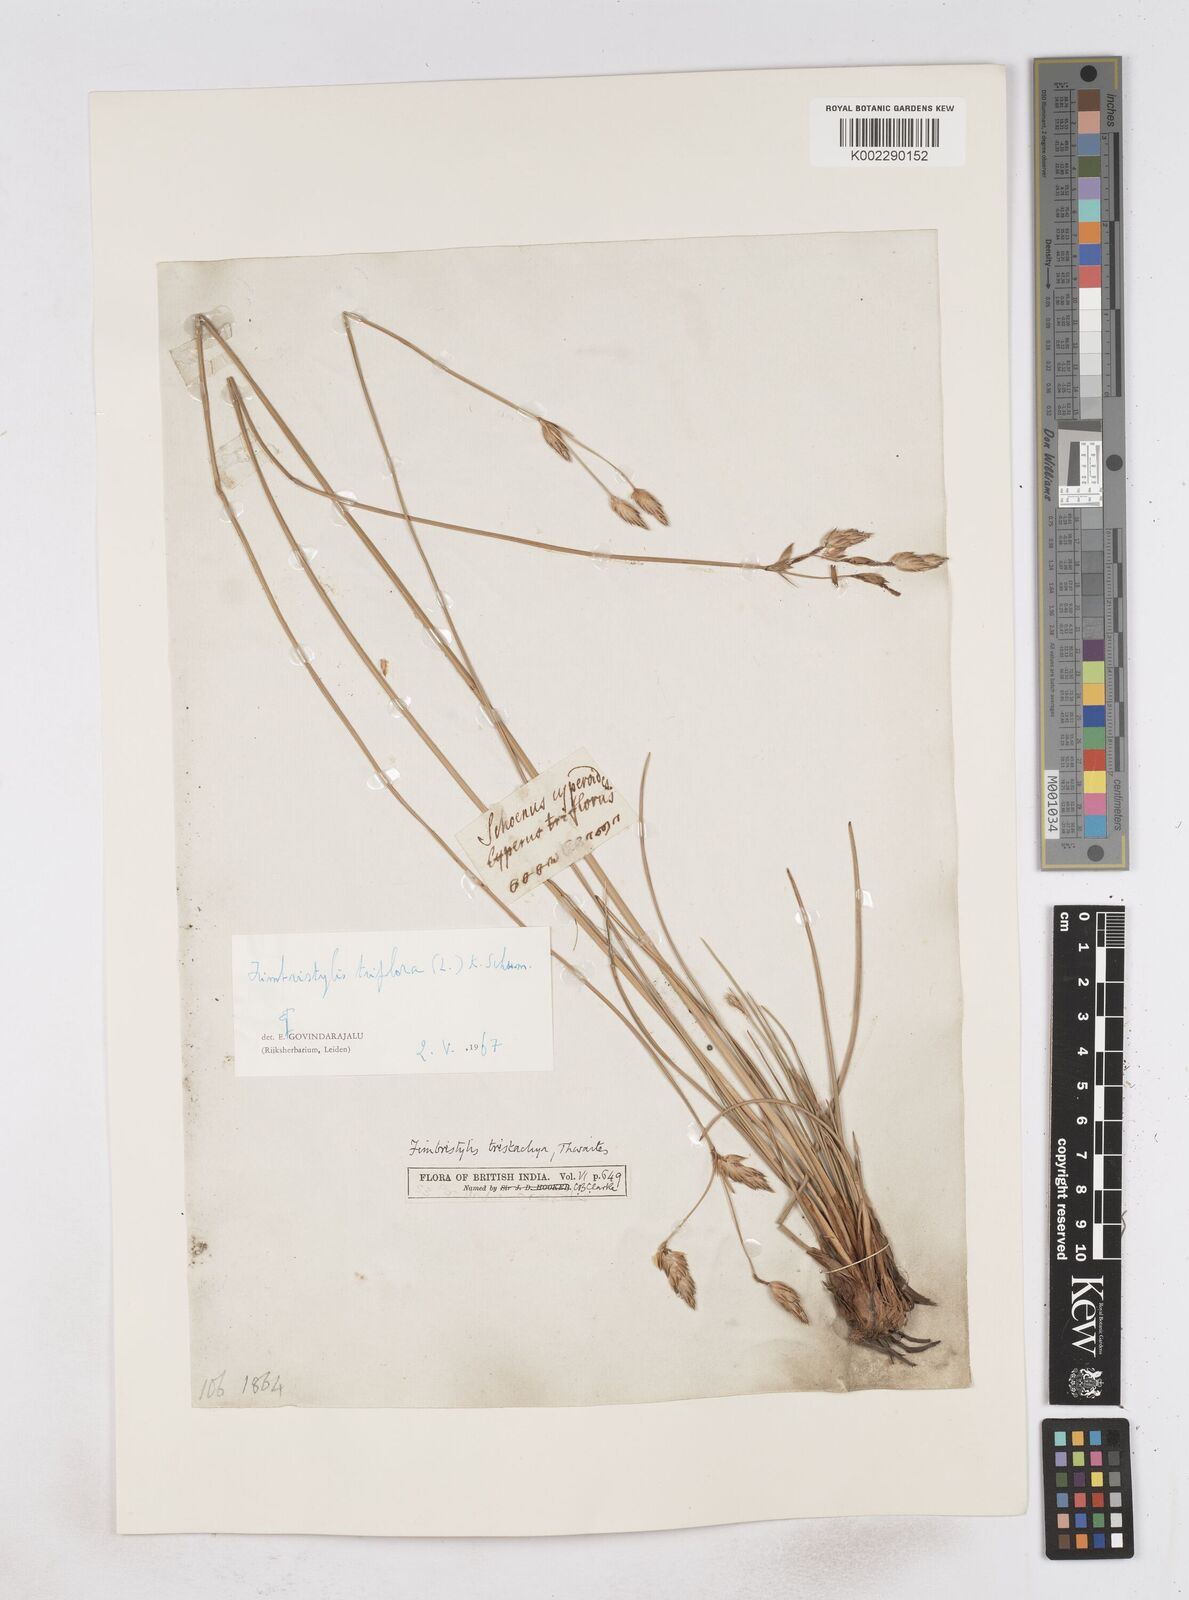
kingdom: Plantae
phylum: Tracheophyta
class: Liliopsida
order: Poales
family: Cyperaceae
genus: Abildgaardia
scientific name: Abildgaardia triflora
